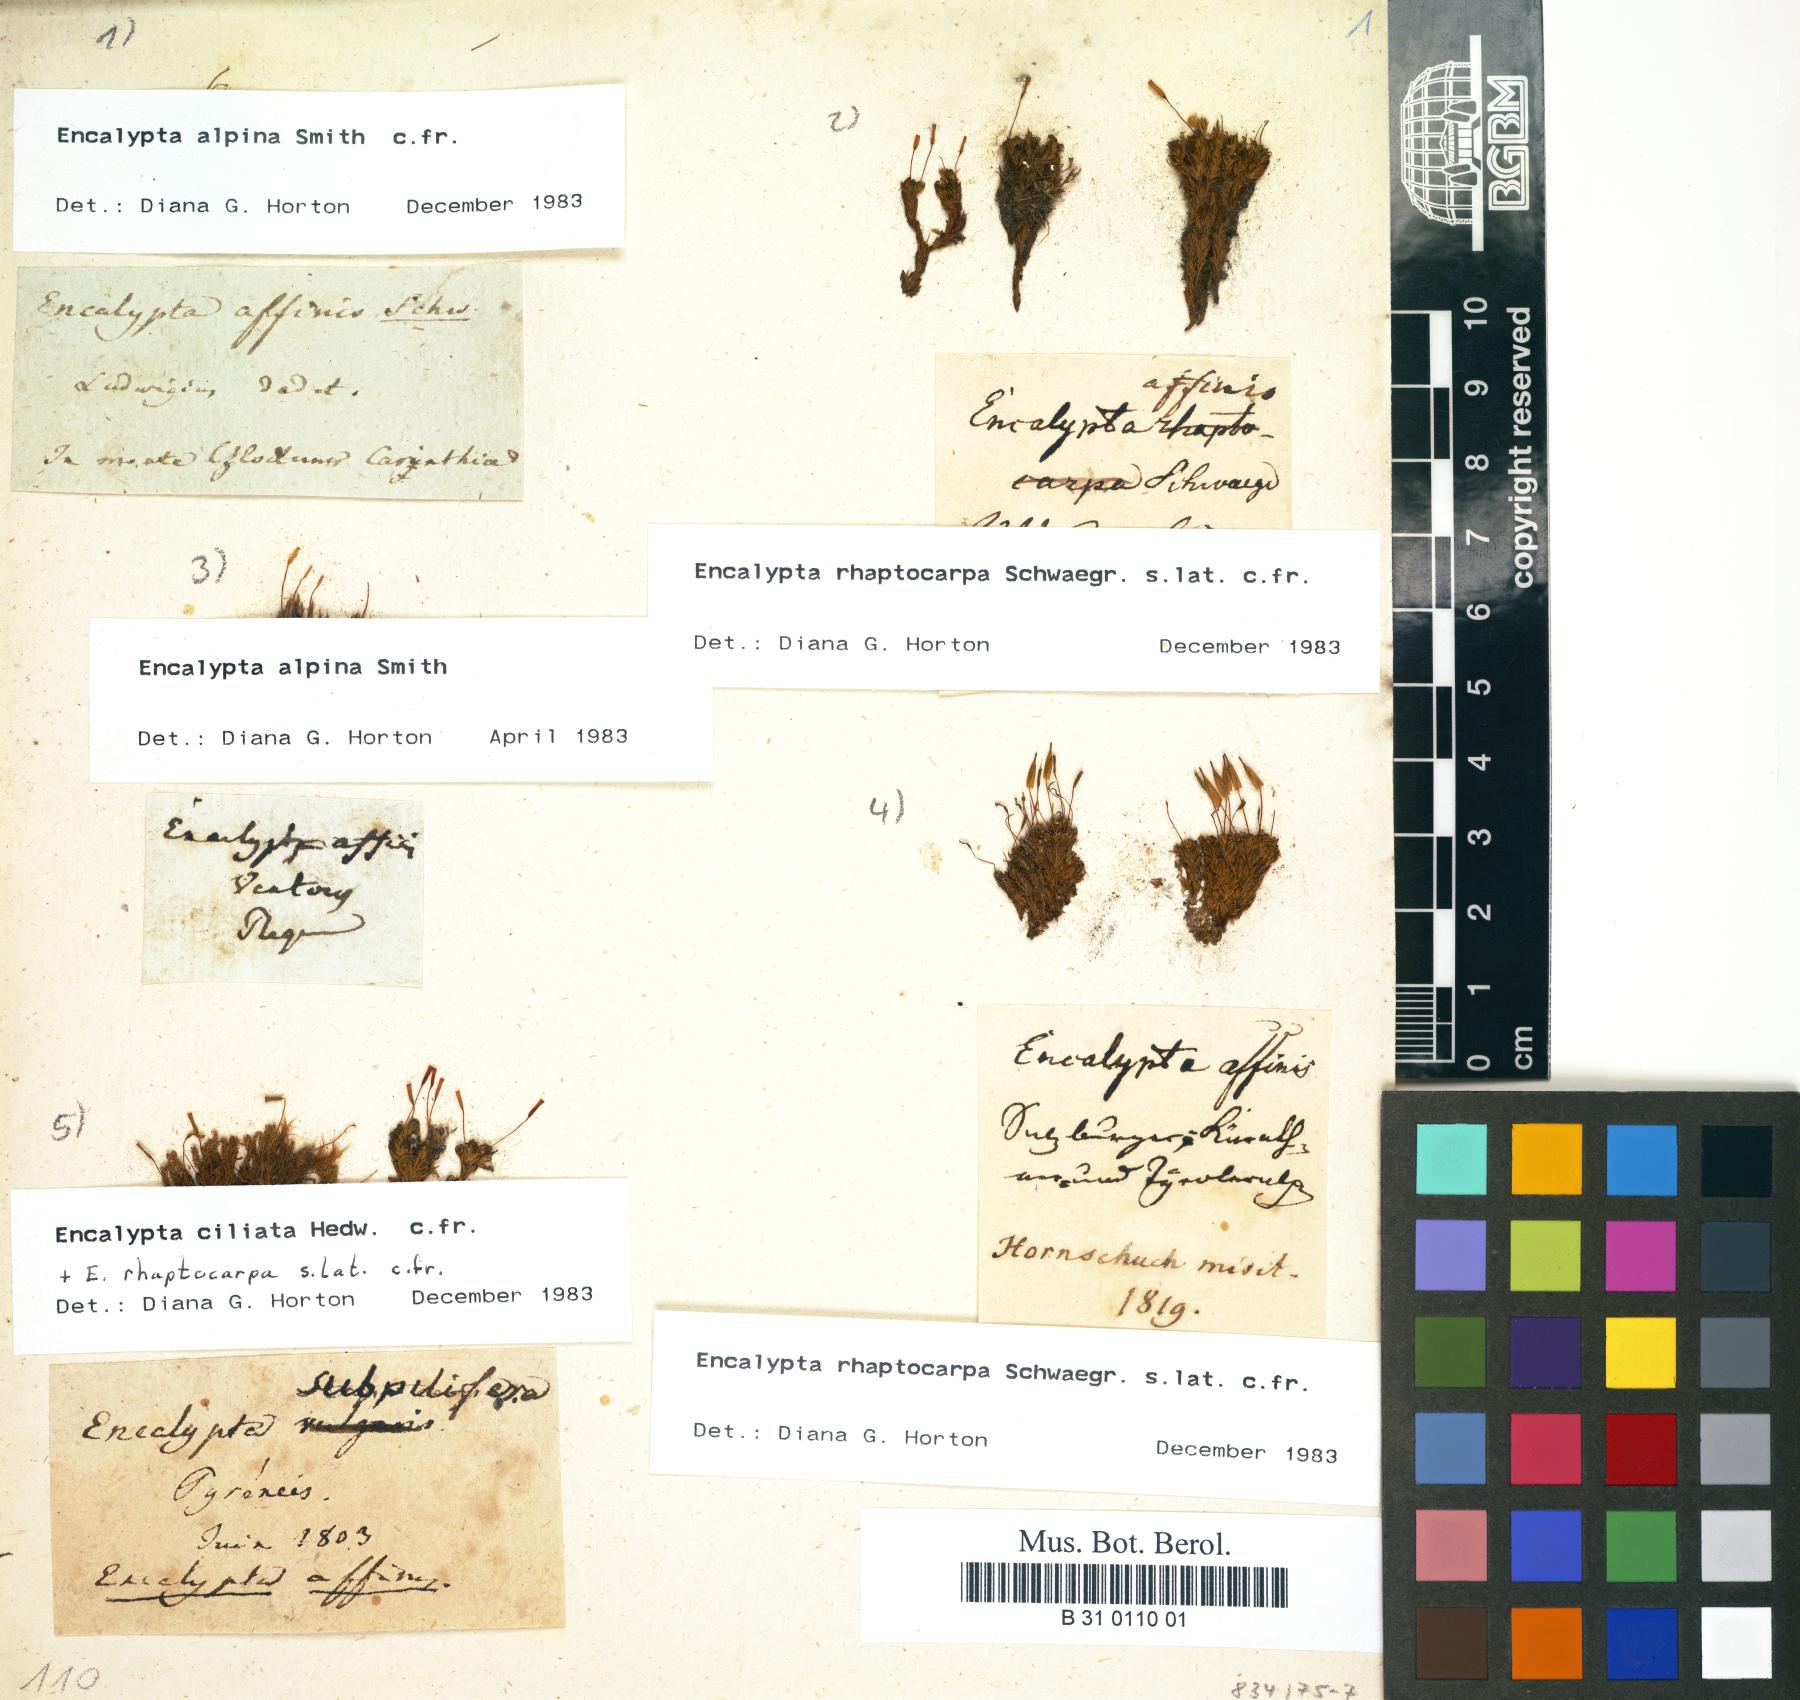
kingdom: Plantae
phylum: Bryophyta
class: Bryopsida
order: Encalyptales
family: Encalyptaceae
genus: Encalypta
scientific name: Encalypta affinis
